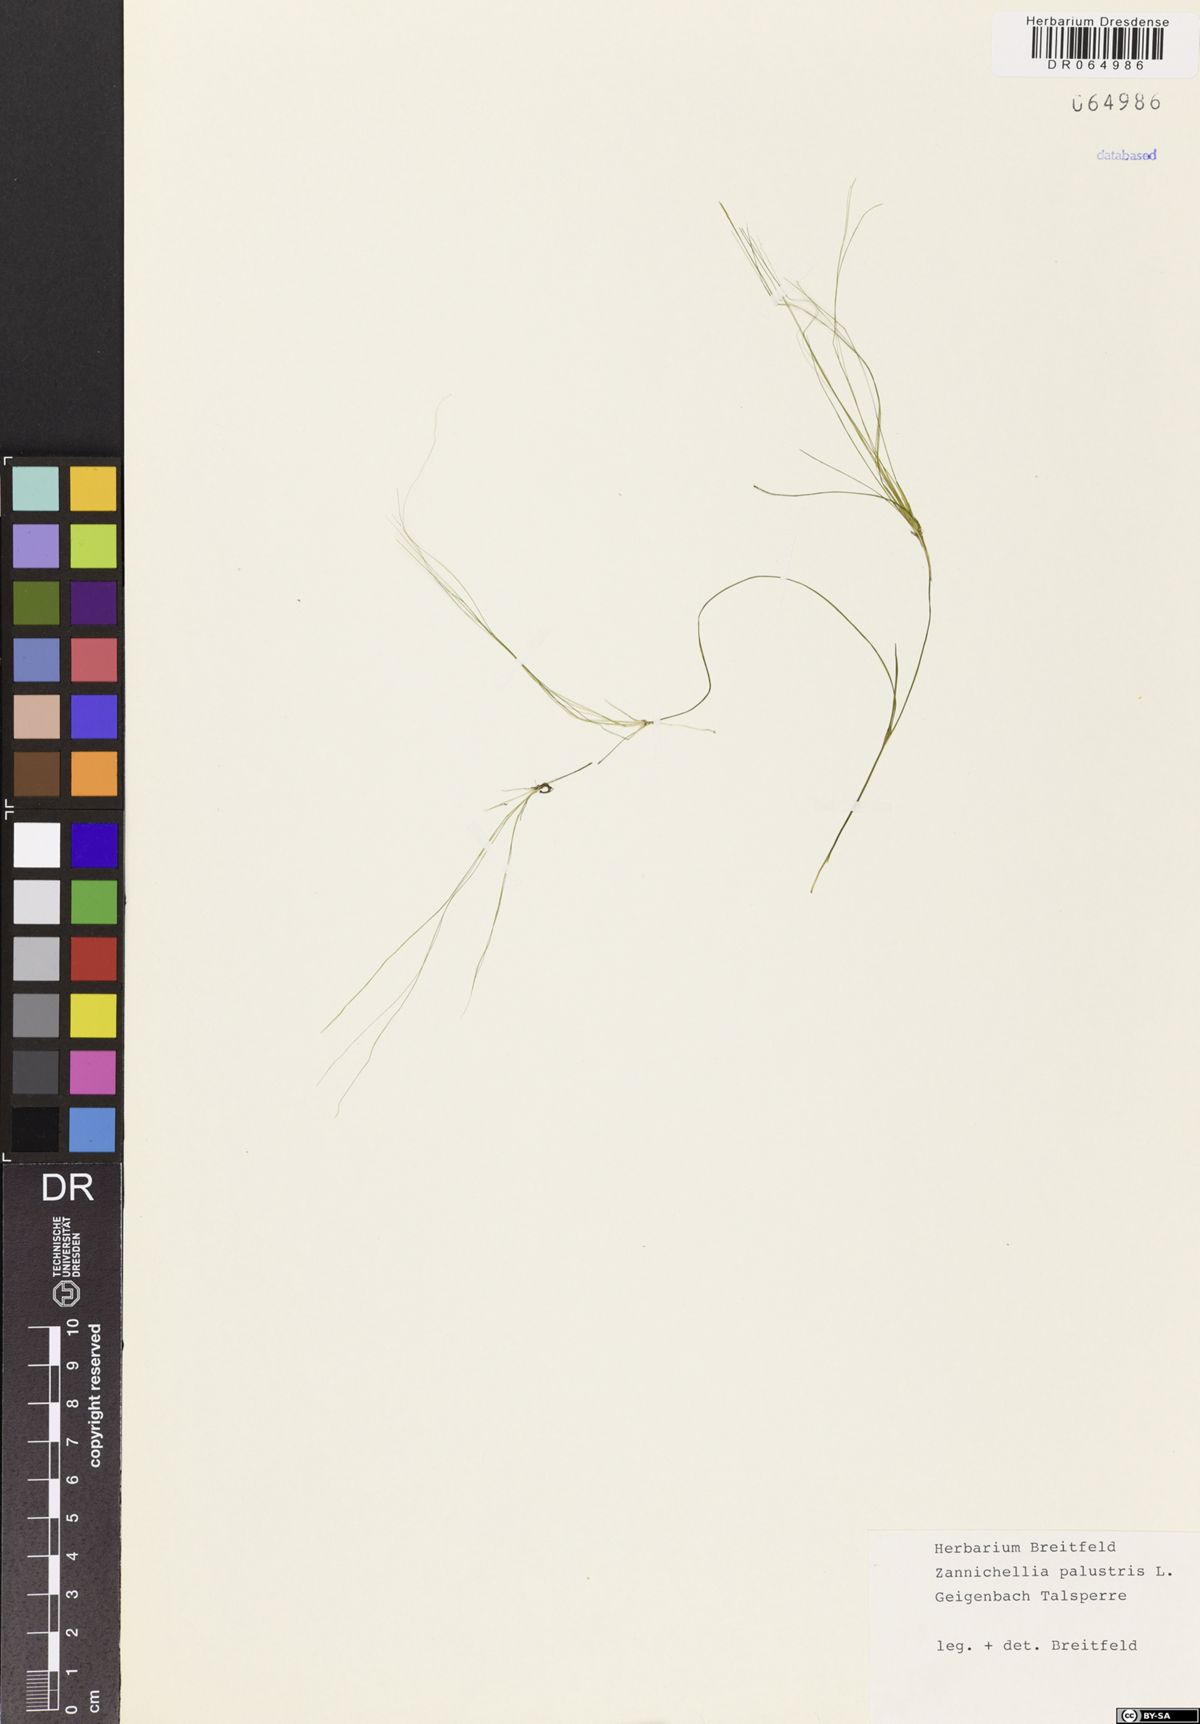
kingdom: Plantae
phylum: Tracheophyta
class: Liliopsida
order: Alismatales
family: Potamogetonaceae
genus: Zannichellia
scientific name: Zannichellia palustris
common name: Horned pondweed
